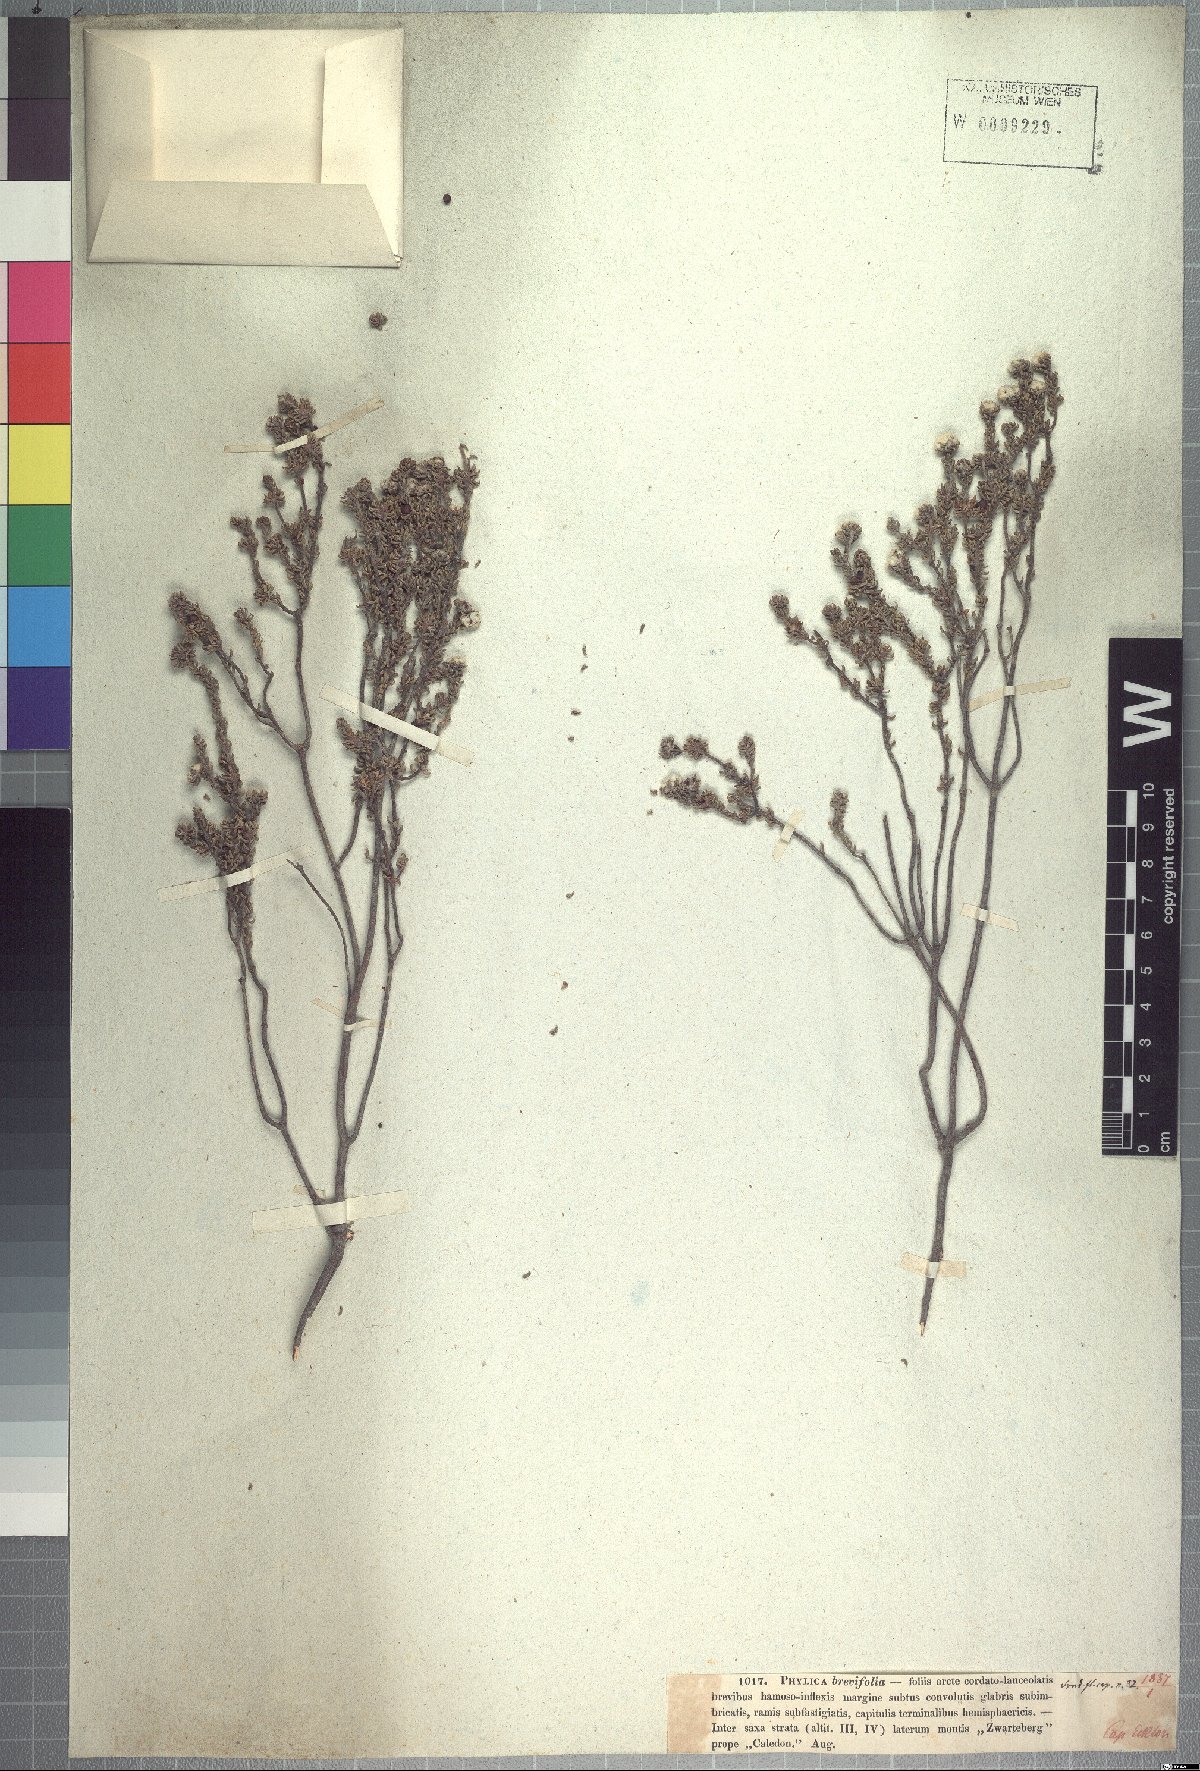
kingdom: Plantae
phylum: Tracheophyta
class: Magnoliopsida
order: Rosales
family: Rhamnaceae
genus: Phylica
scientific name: Phylica brevifolia
